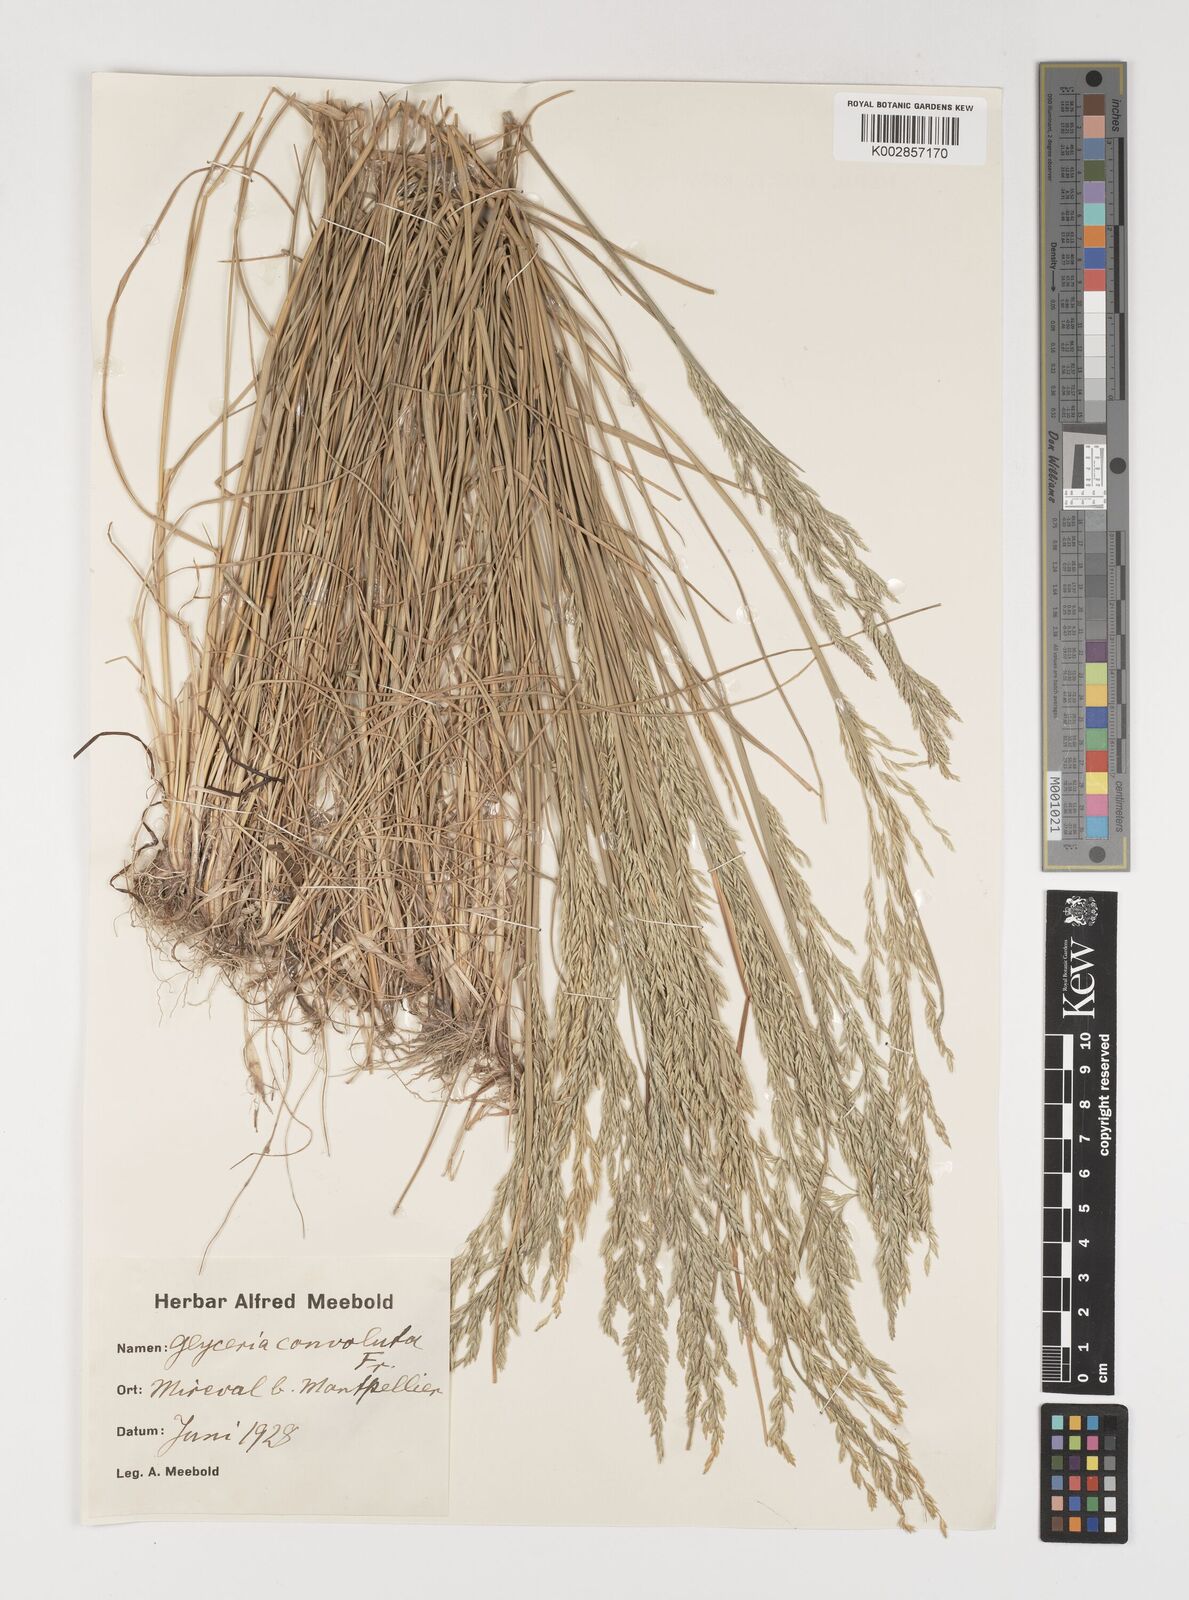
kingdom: Plantae
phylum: Tracheophyta
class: Liliopsida
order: Poales
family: Poaceae
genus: Puccinellia
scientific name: Puccinellia convoluta
